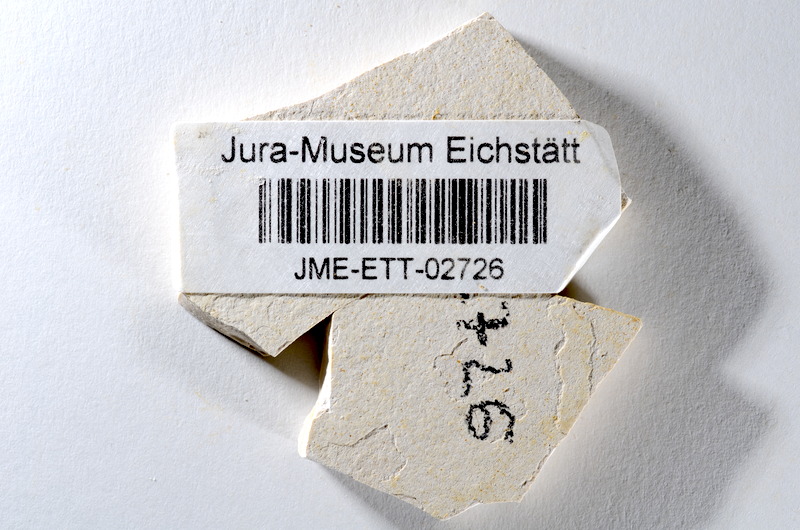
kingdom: Animalia
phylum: Chordata
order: Salmoniformes
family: Orthogonikleithridae
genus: Orthogonikleithrus
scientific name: Orthogonikleithrus hoelli
